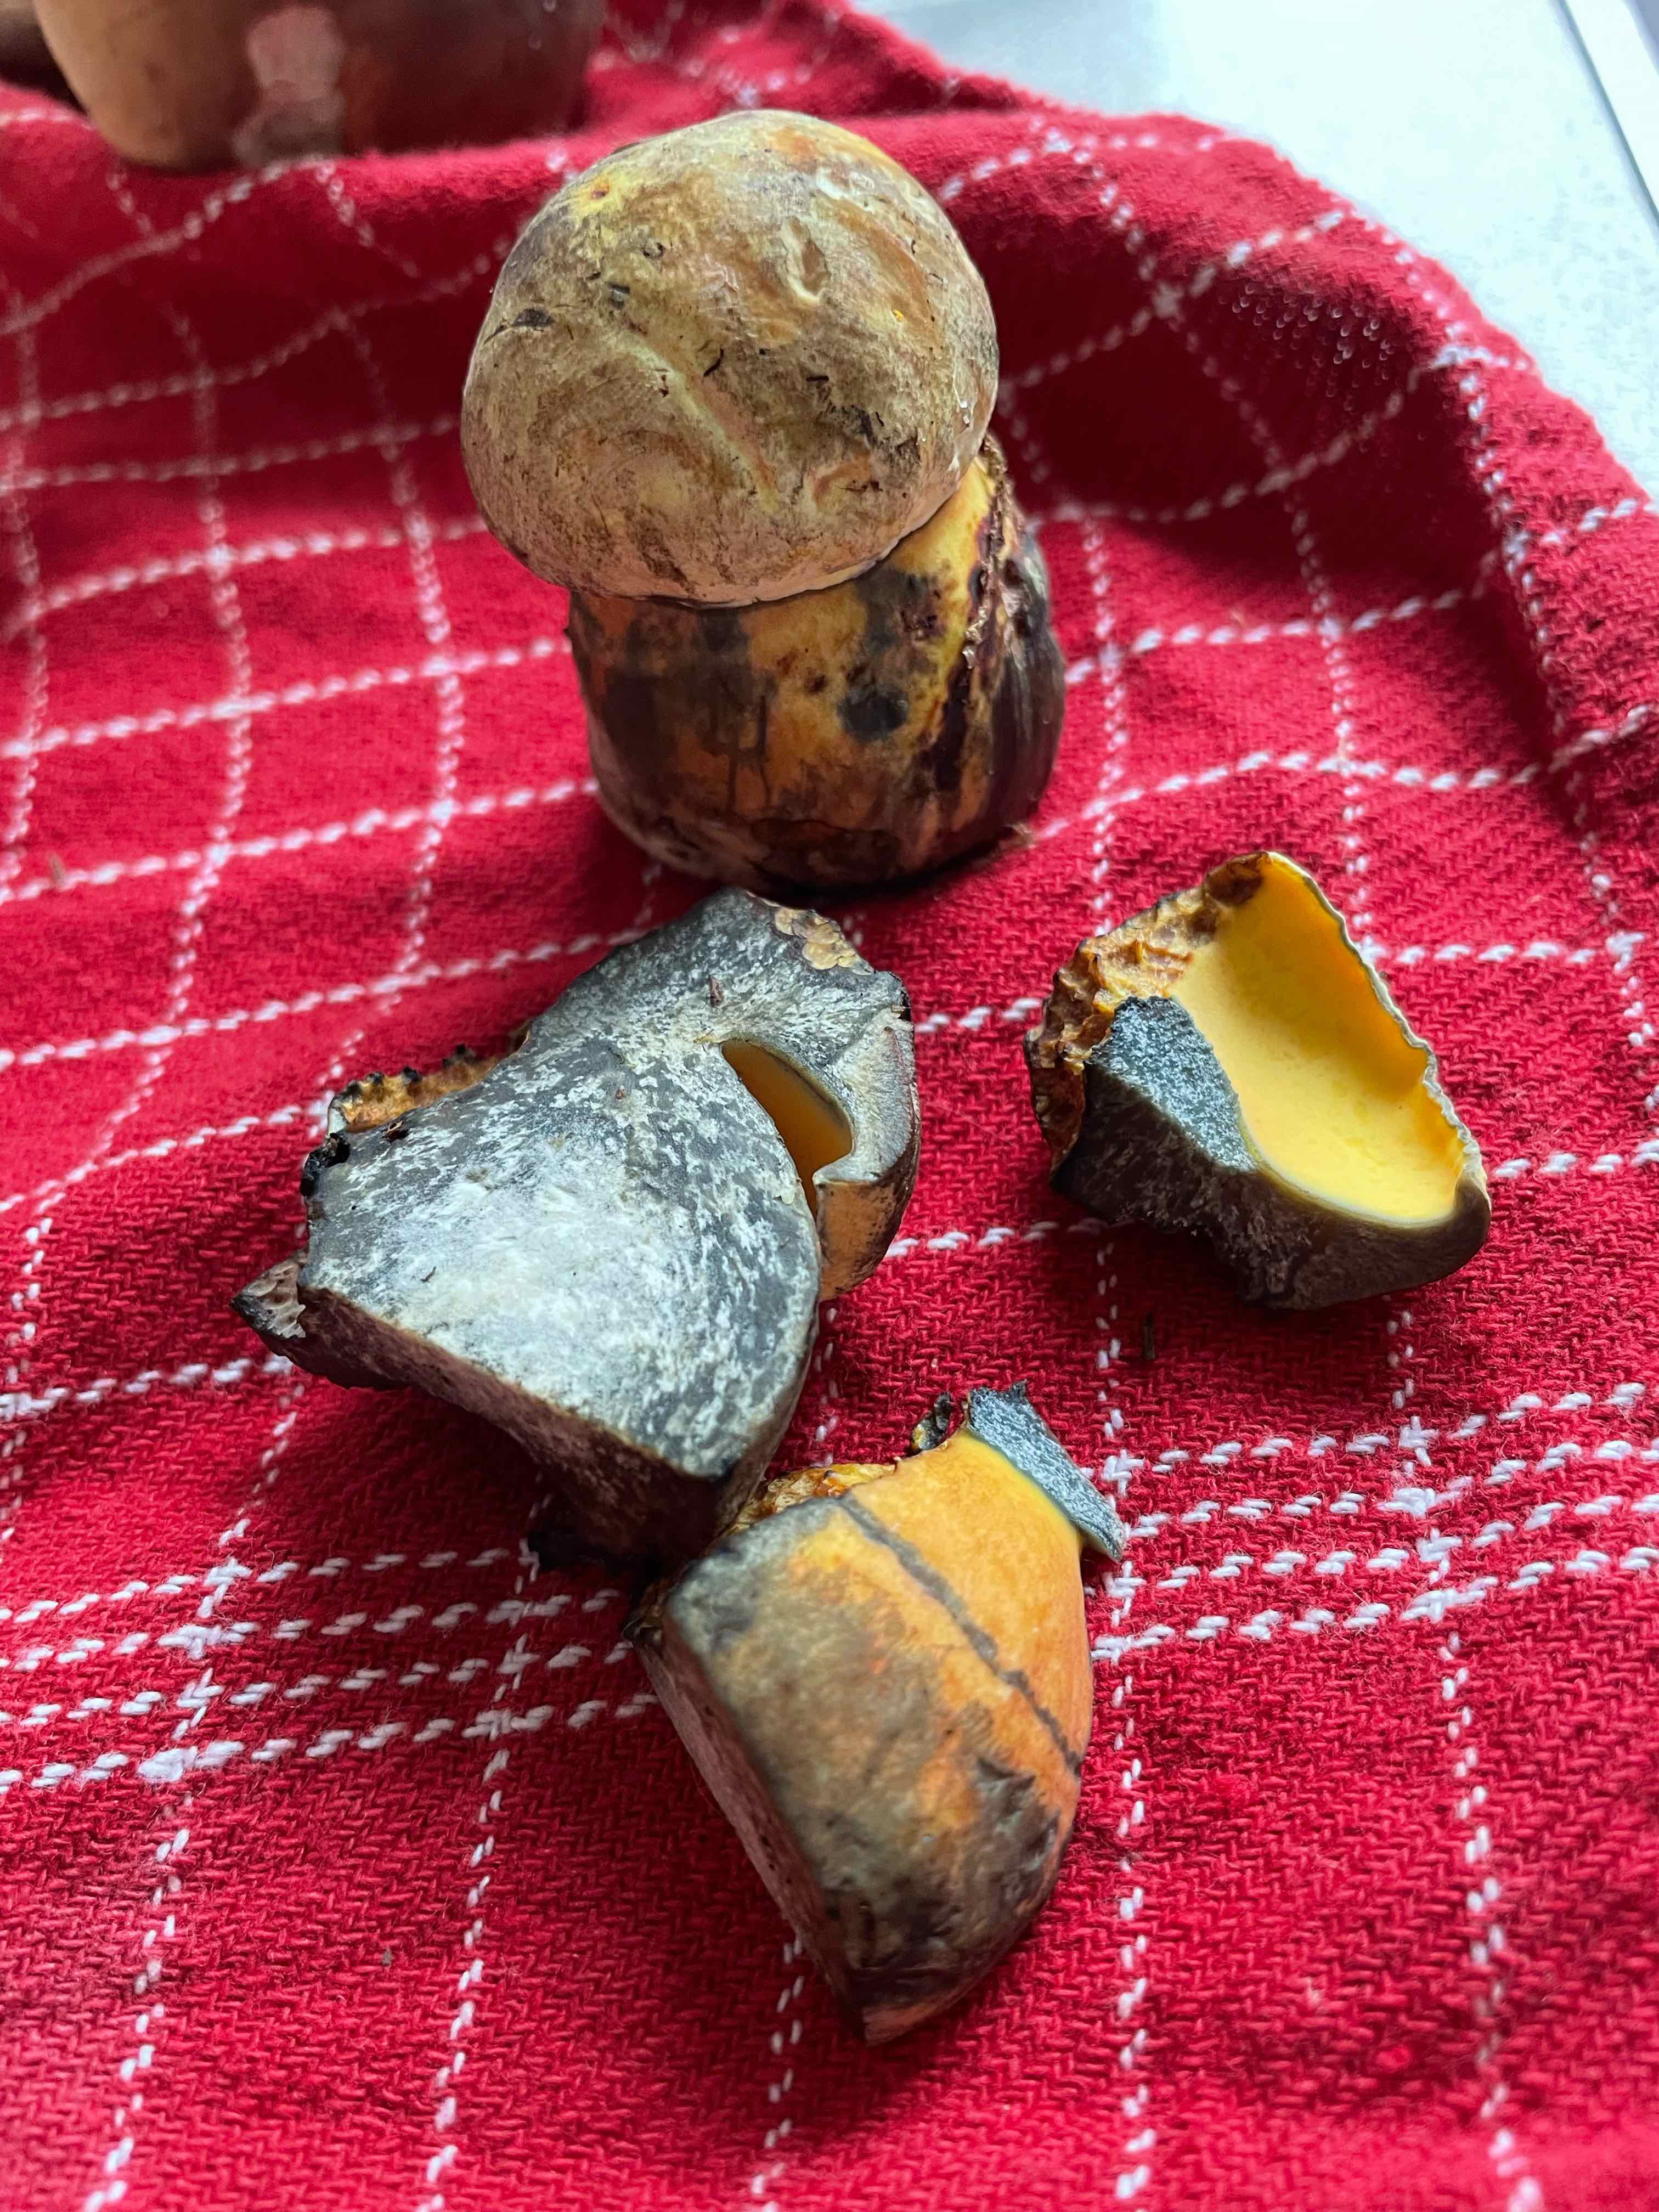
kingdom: Fungi
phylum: Basidiomycota
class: Agaricomycetes
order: Boletales
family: Boletaceae
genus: Neoboletus
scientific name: Neoboletus praestigiator
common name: gul indigorørhat
